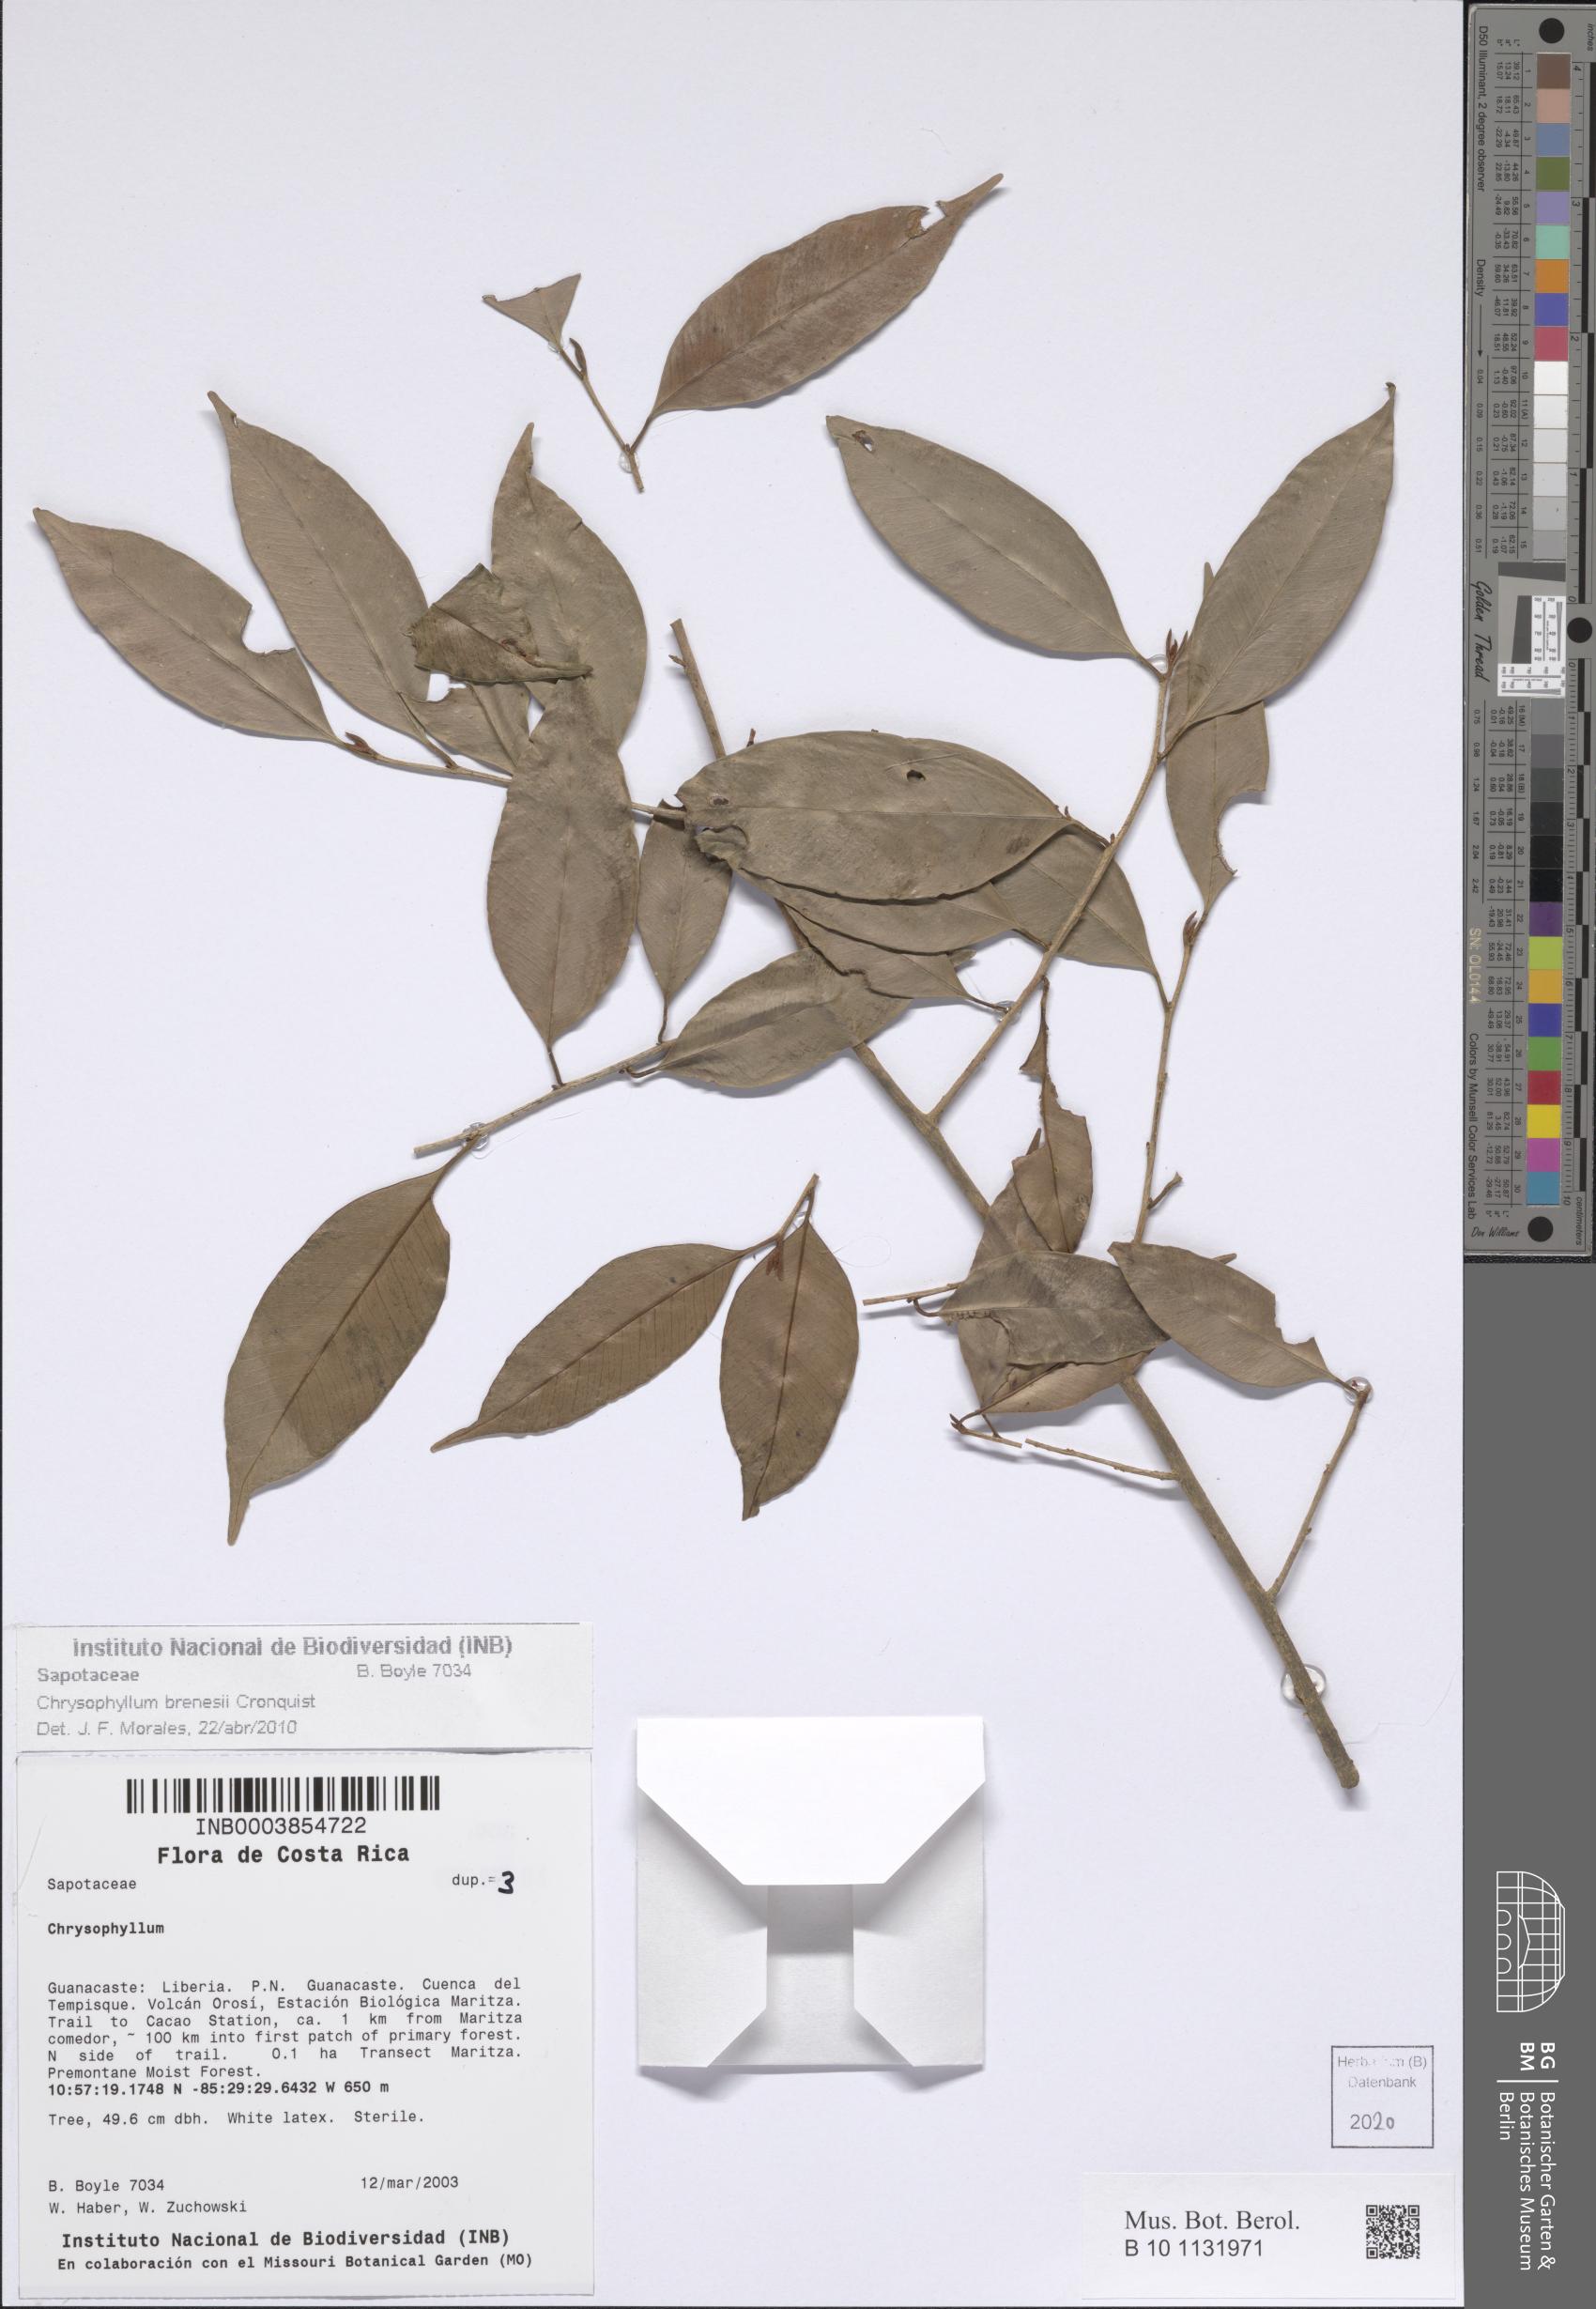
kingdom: Plantae
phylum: Tracheophyta
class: Magnoliopsida
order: Ericales
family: Sapotaceae
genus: Chrysophyllum
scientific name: Chrysophyllum brenesii
